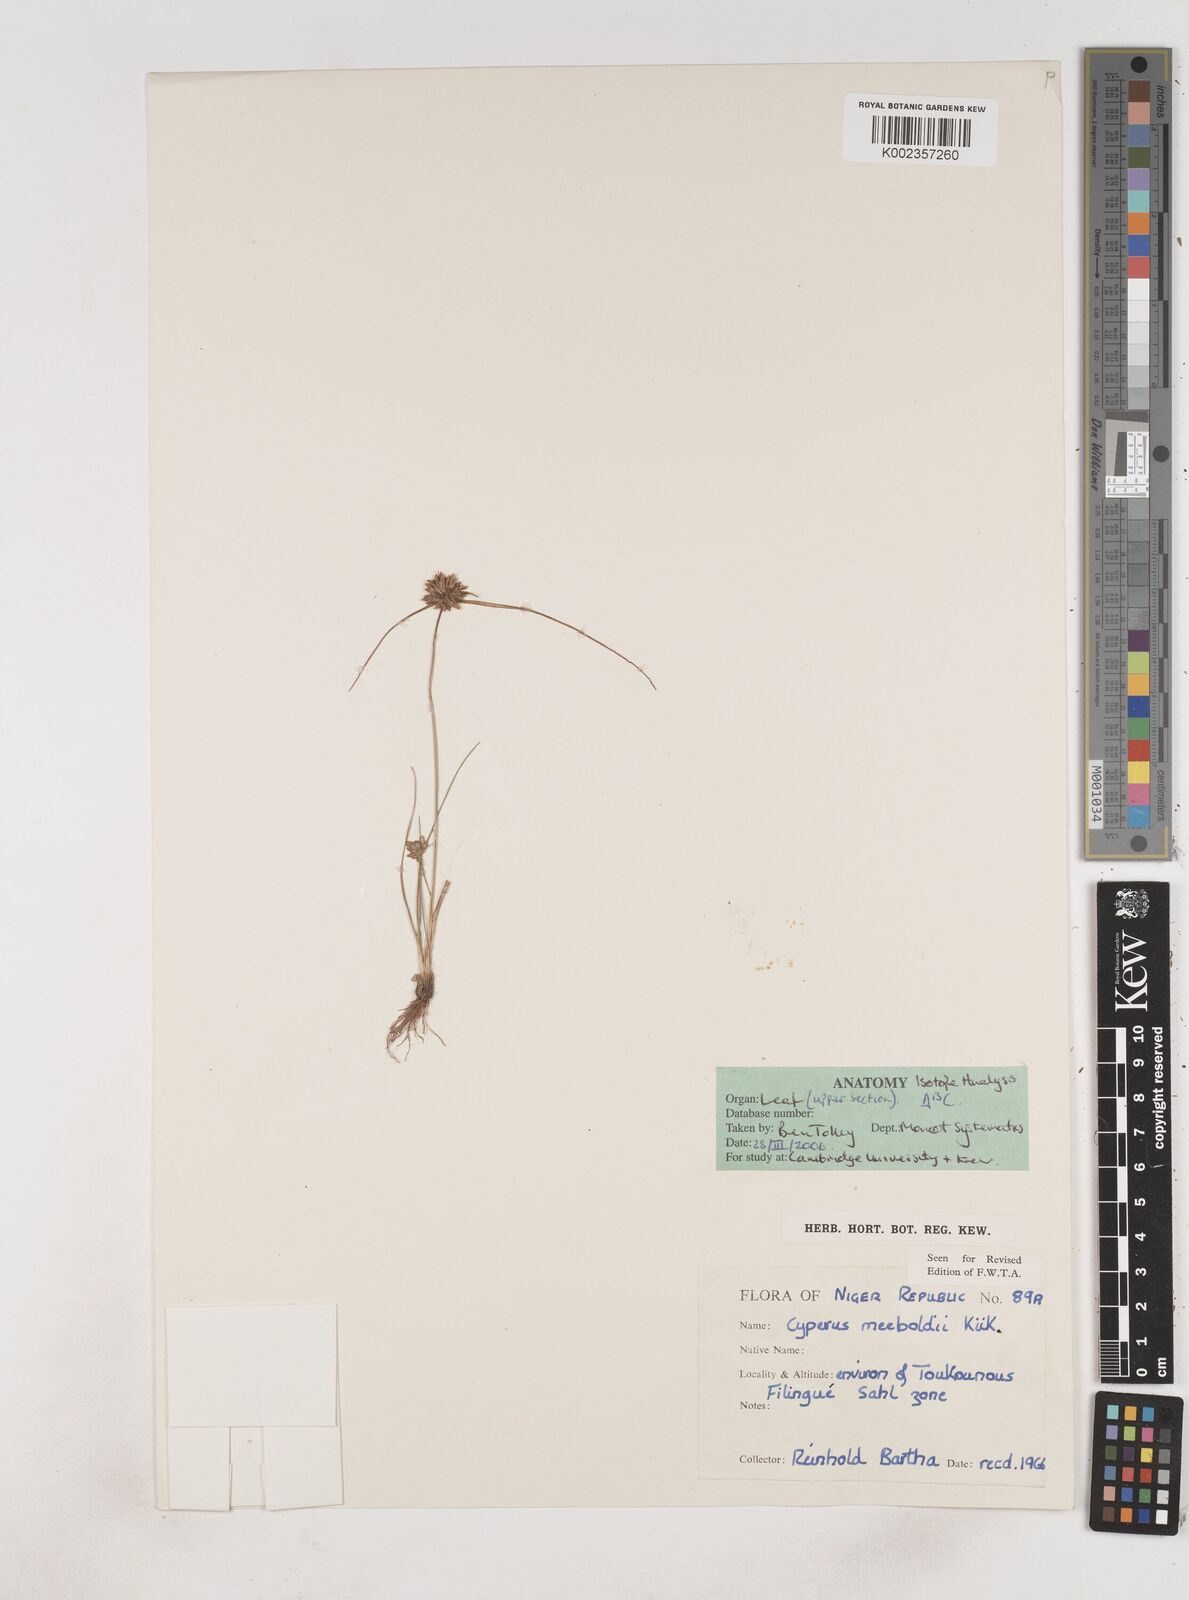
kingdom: Plantae
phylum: Tracheophyta
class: Liliopsida
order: Poales
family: Cyperaceae
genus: Cyperus
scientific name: Cyperus meeboldii
